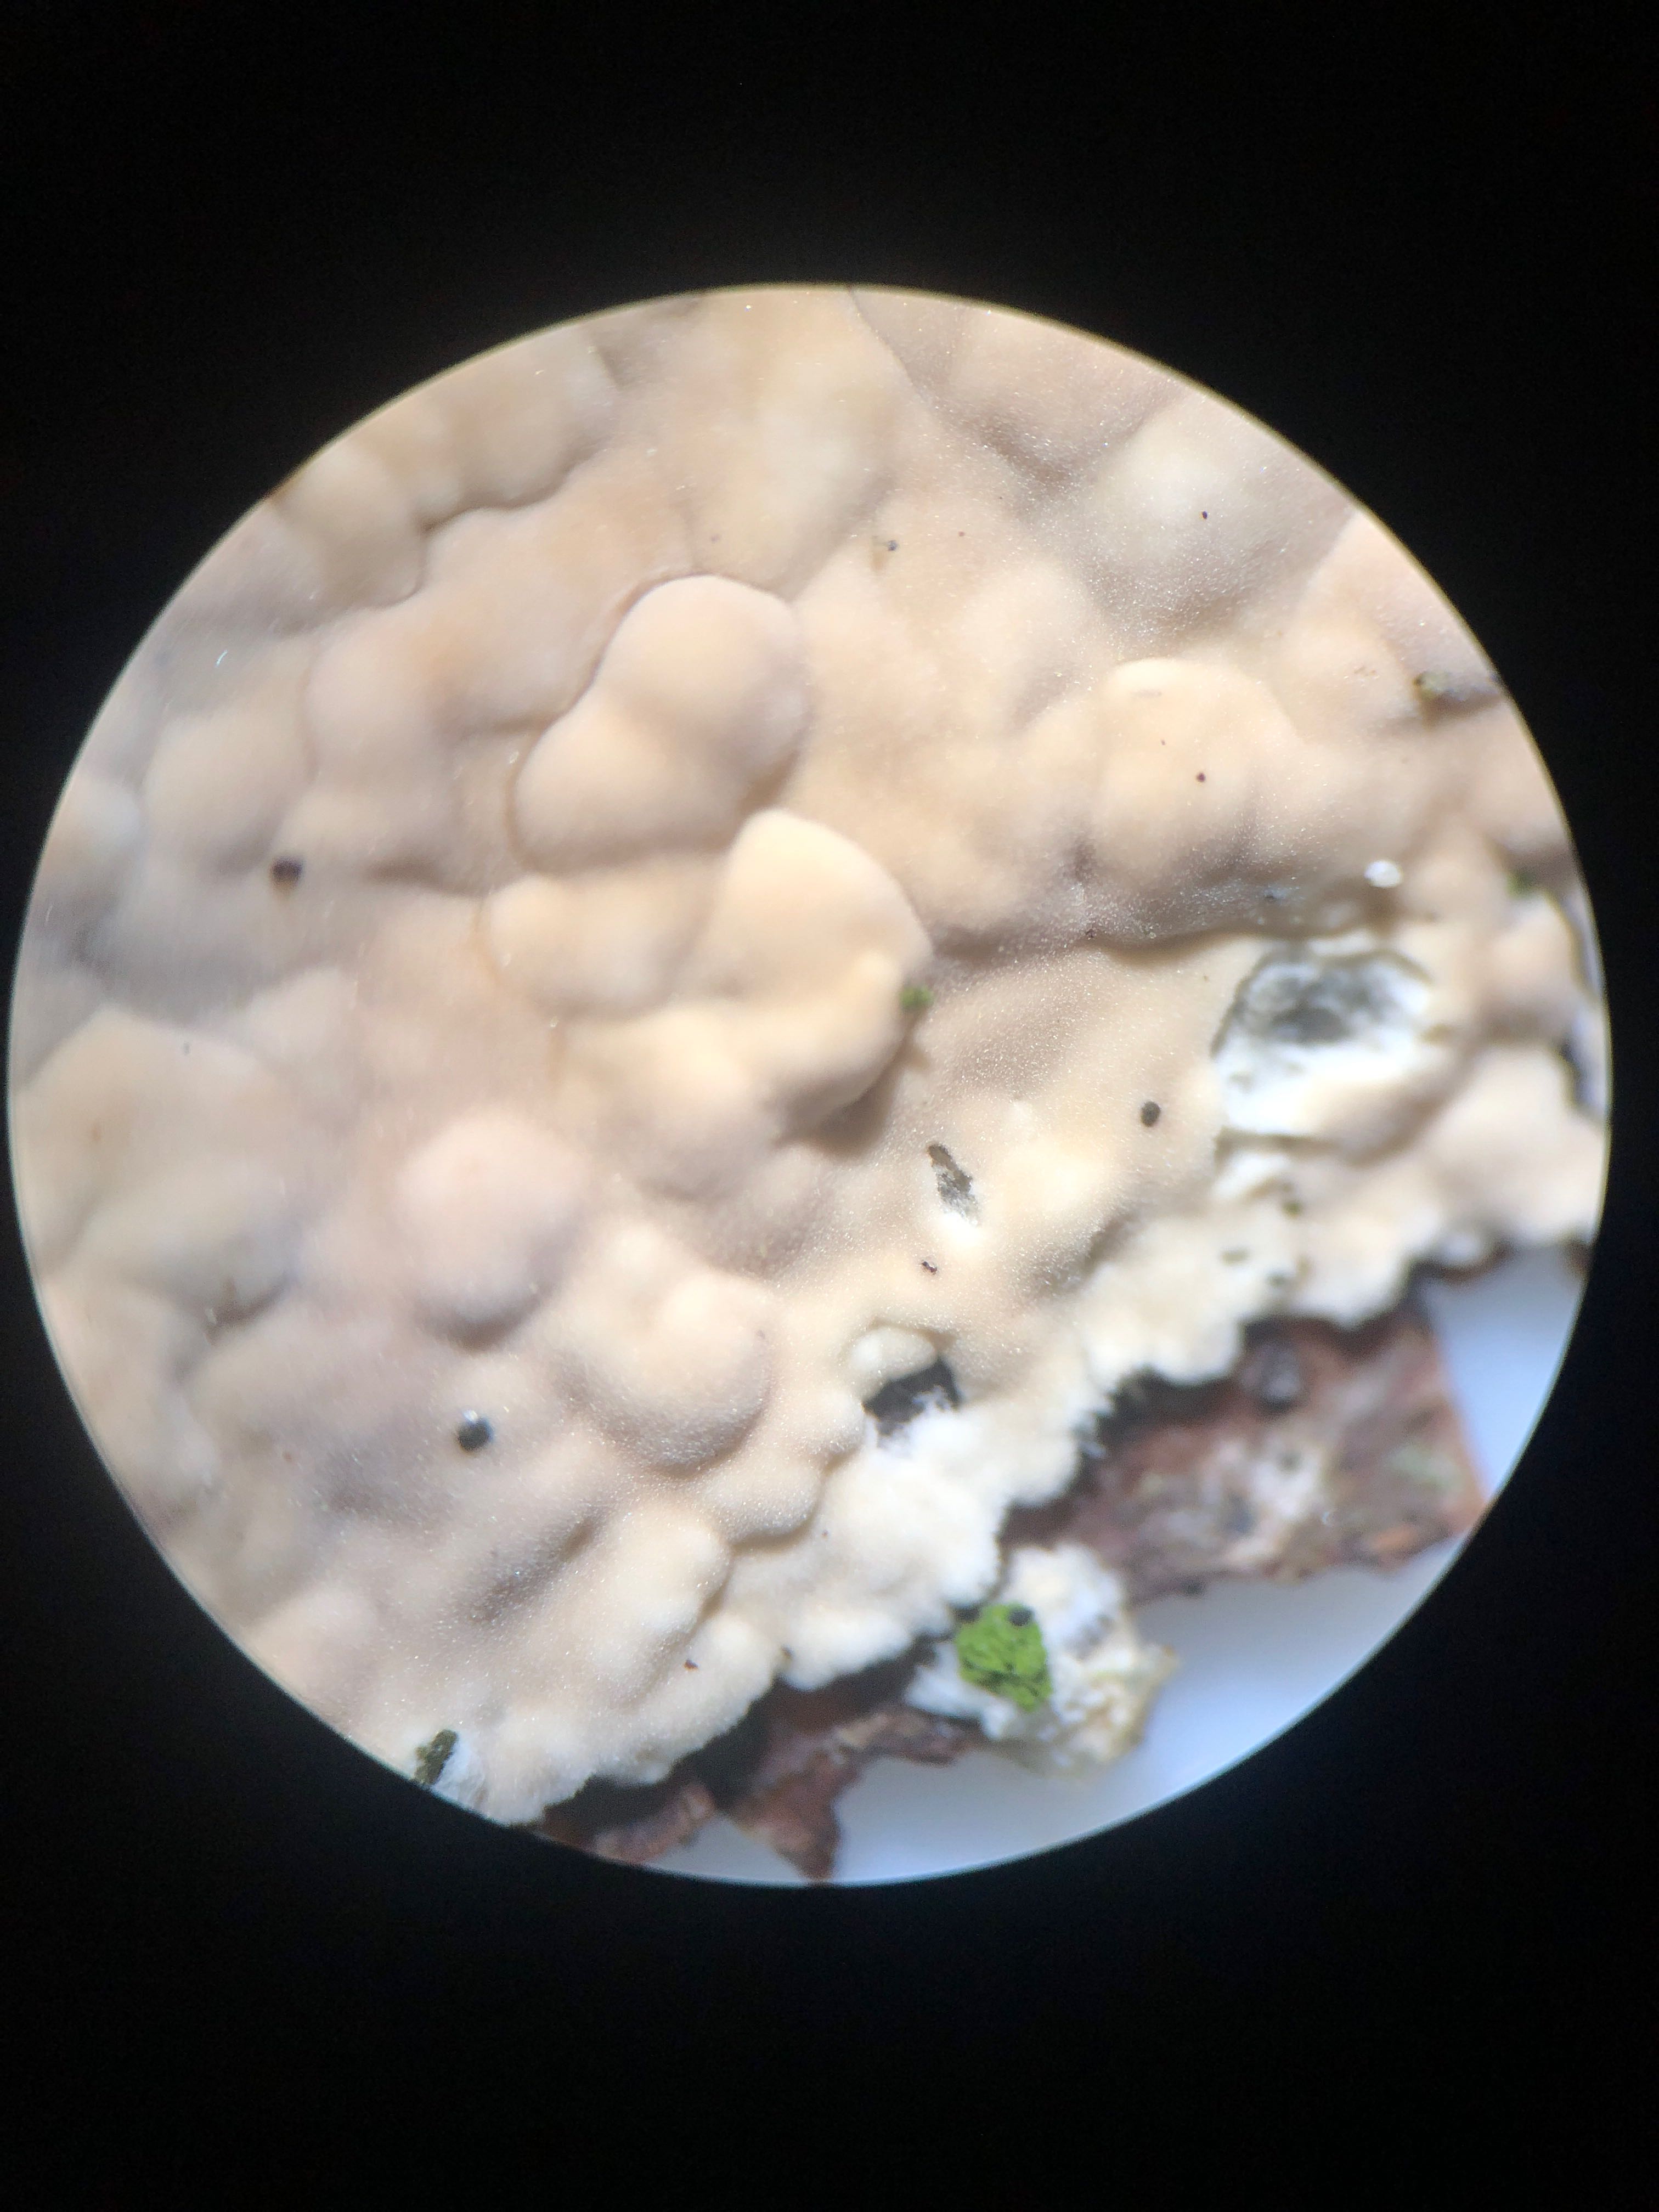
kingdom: Fungi
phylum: Basidiomycota
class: Agaricomycetes
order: Agaricales
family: Physalacriaceae
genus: Cylindrobasidium
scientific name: Cylindrobasidium evolvens
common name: sprækkehinde
